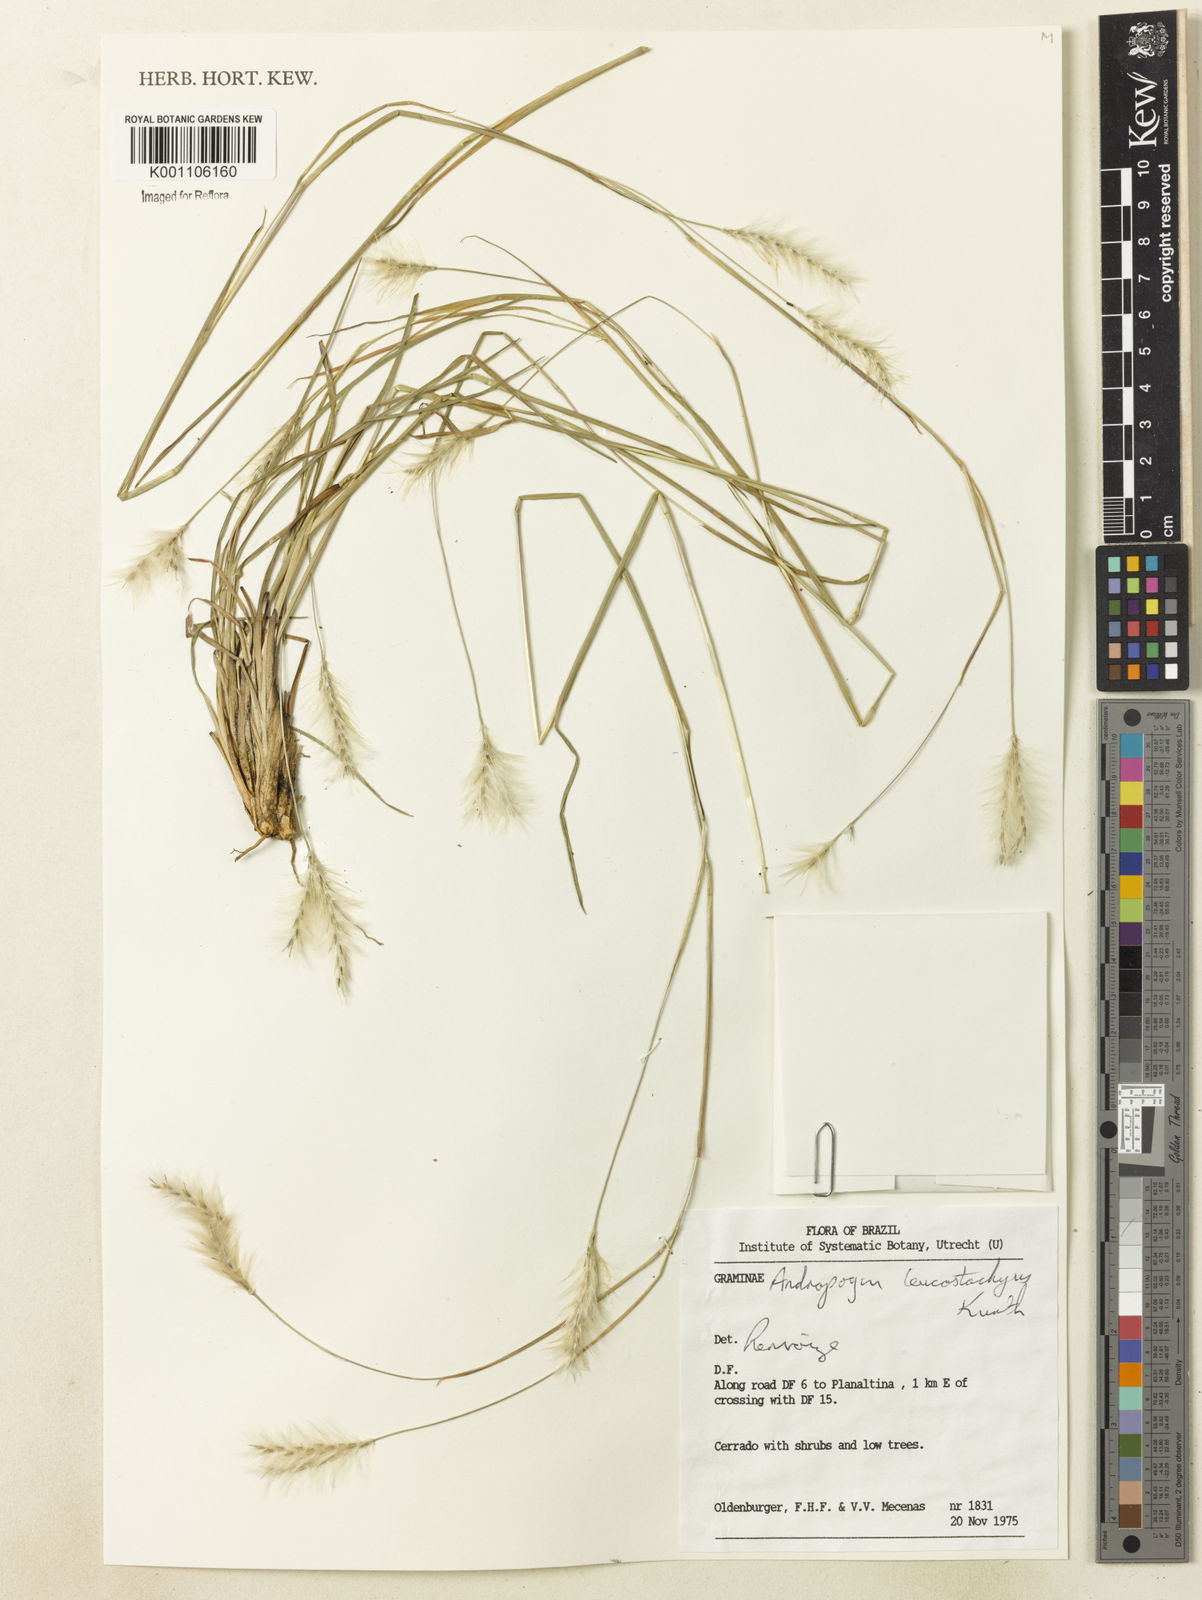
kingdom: Plantae
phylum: Tracheophyta
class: Liliopsida
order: Poales
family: Poaceae
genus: Andropogon
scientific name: Andropogon leucostachyus
